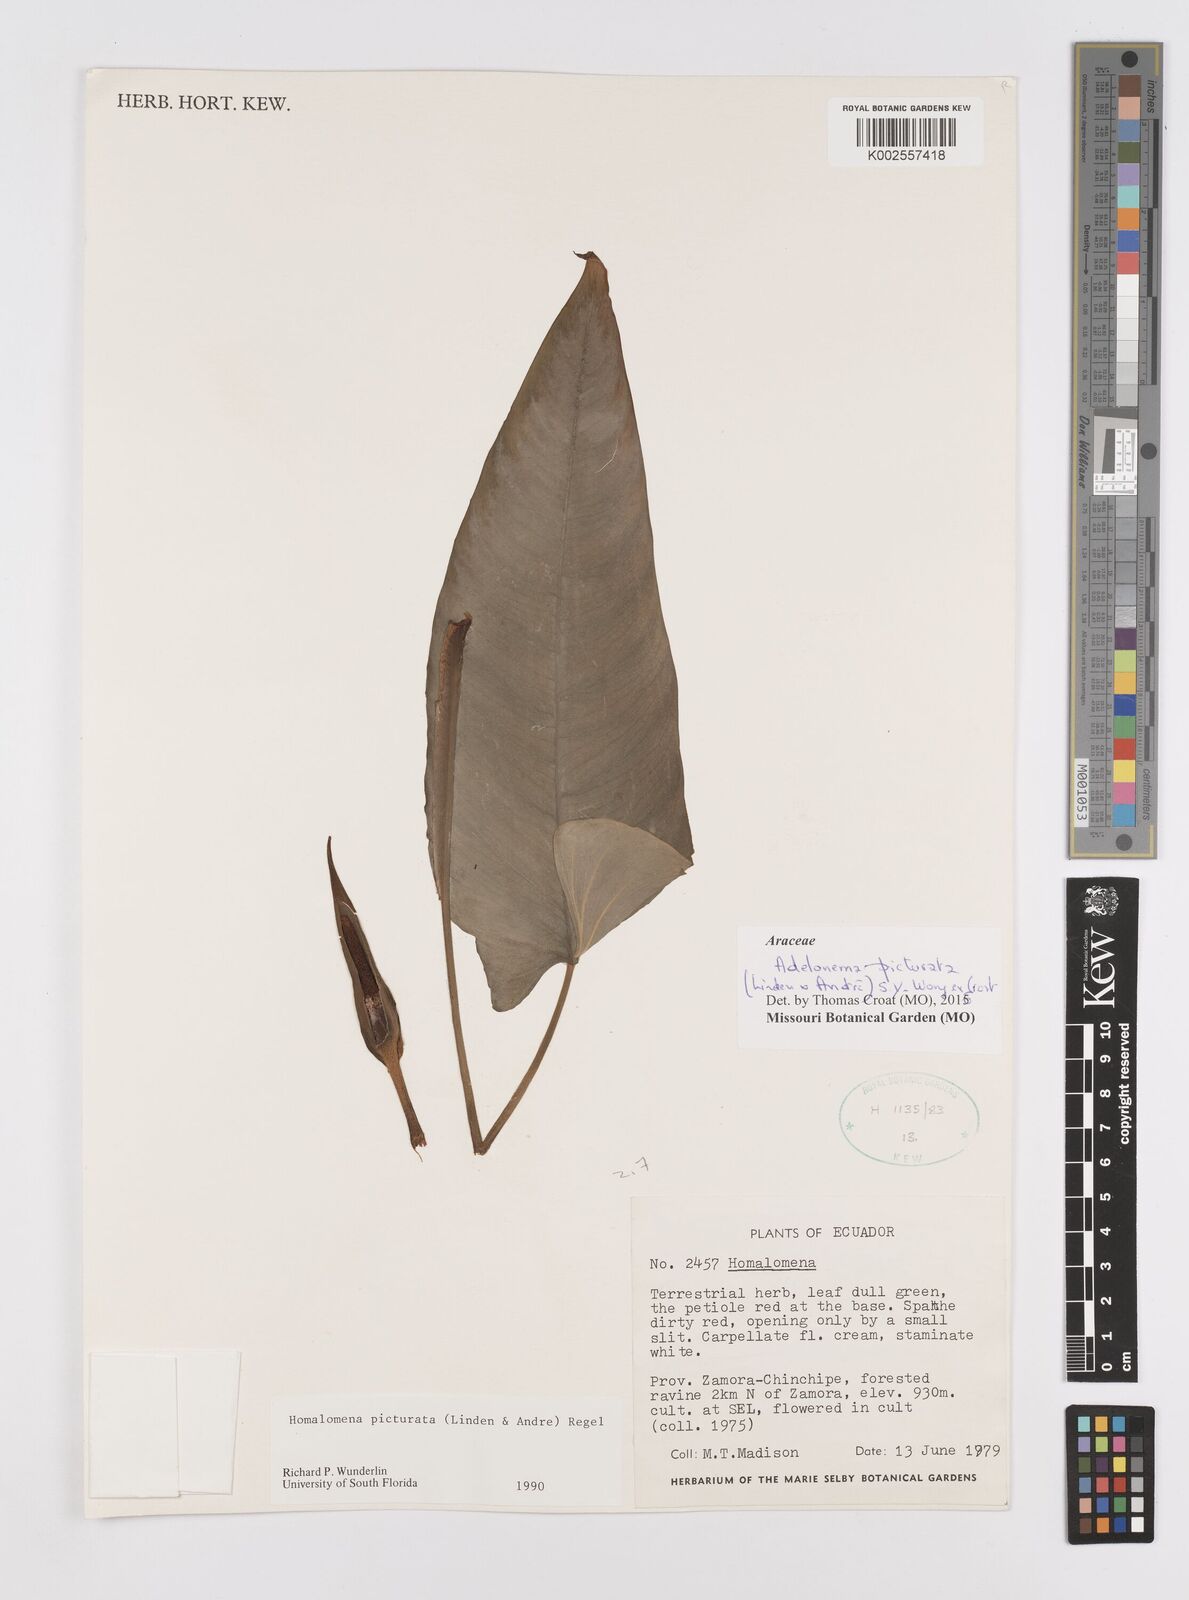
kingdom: Plantae
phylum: Tracheophyta
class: Liliopsida
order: Alismatales
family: Araceae
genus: Adelonema
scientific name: Adelonema picturatum
